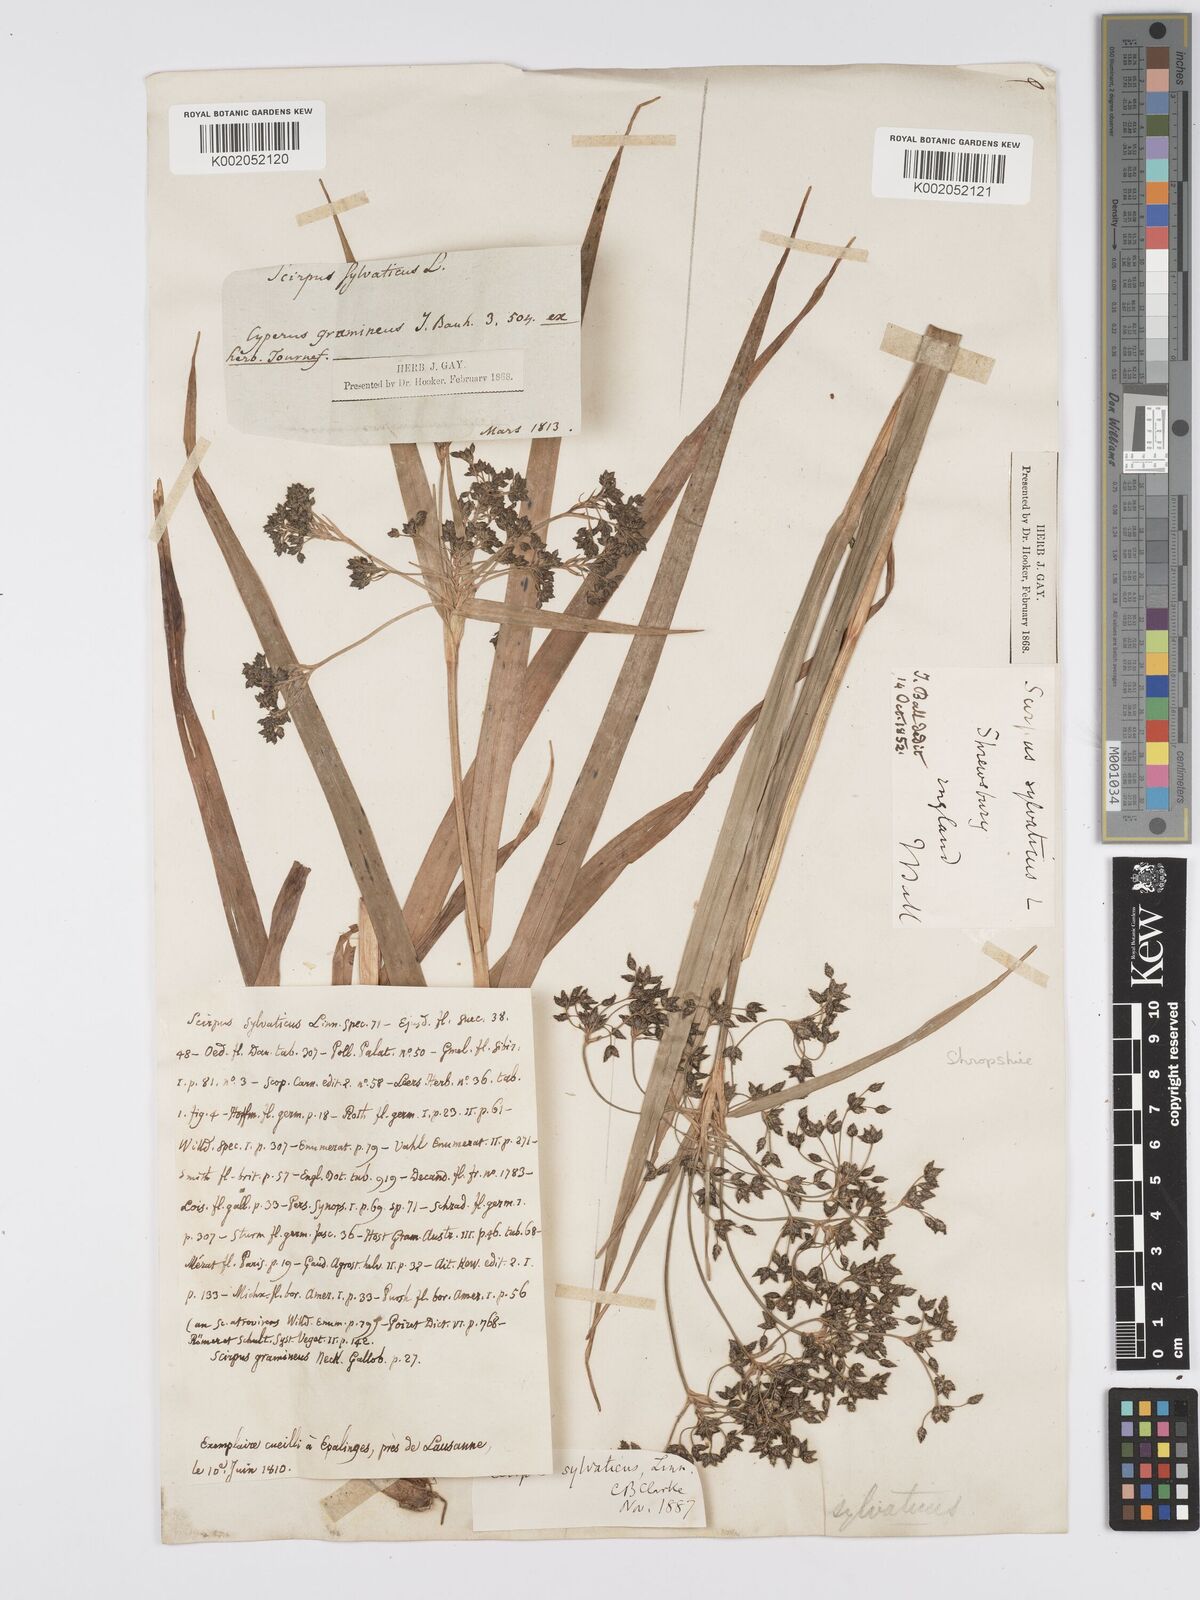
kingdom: Plantae
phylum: Tracheophyta
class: Liliopsida
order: Poales
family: Cyperaceae
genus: Scirpus
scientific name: Scirpus sylvaticus
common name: Wood club-rush
